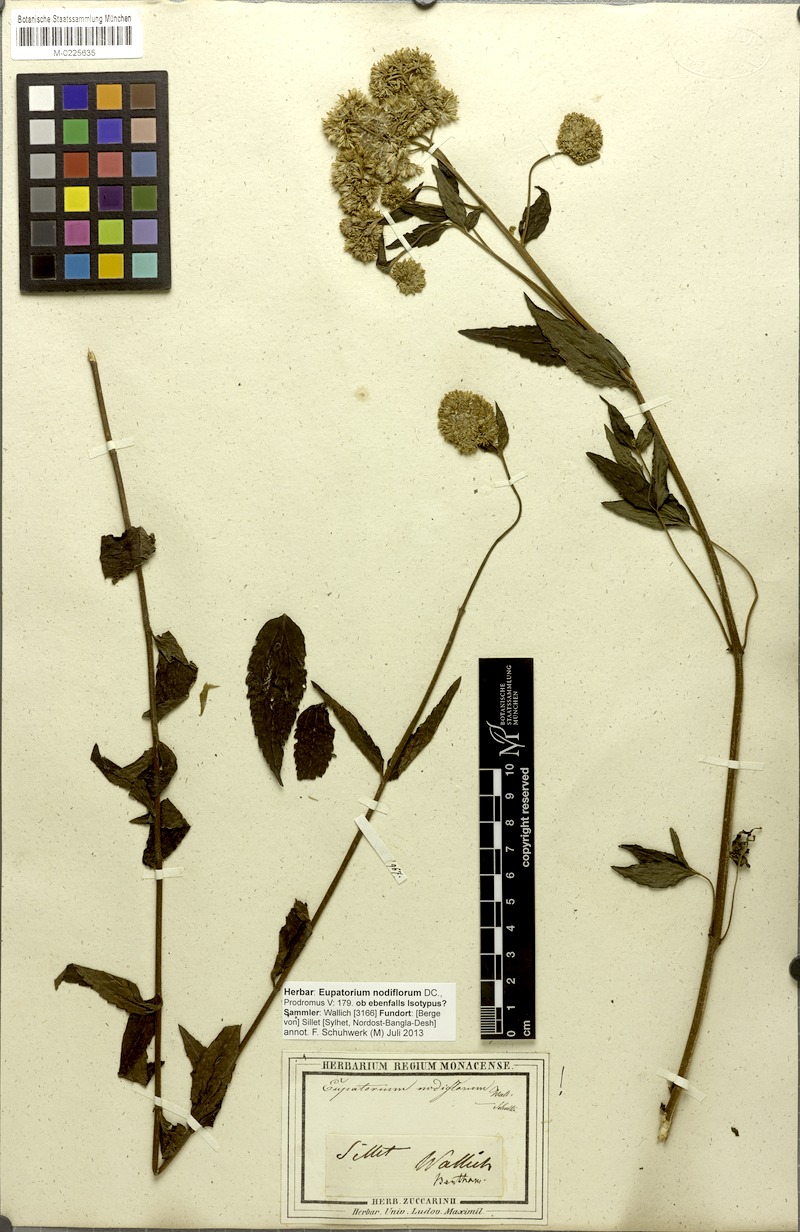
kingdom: Plantae
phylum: Tracheophyta
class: Magnoliopsida
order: Asterales
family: Asteraceae
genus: Eupatorium
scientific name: Eupatorium nodiflorum
